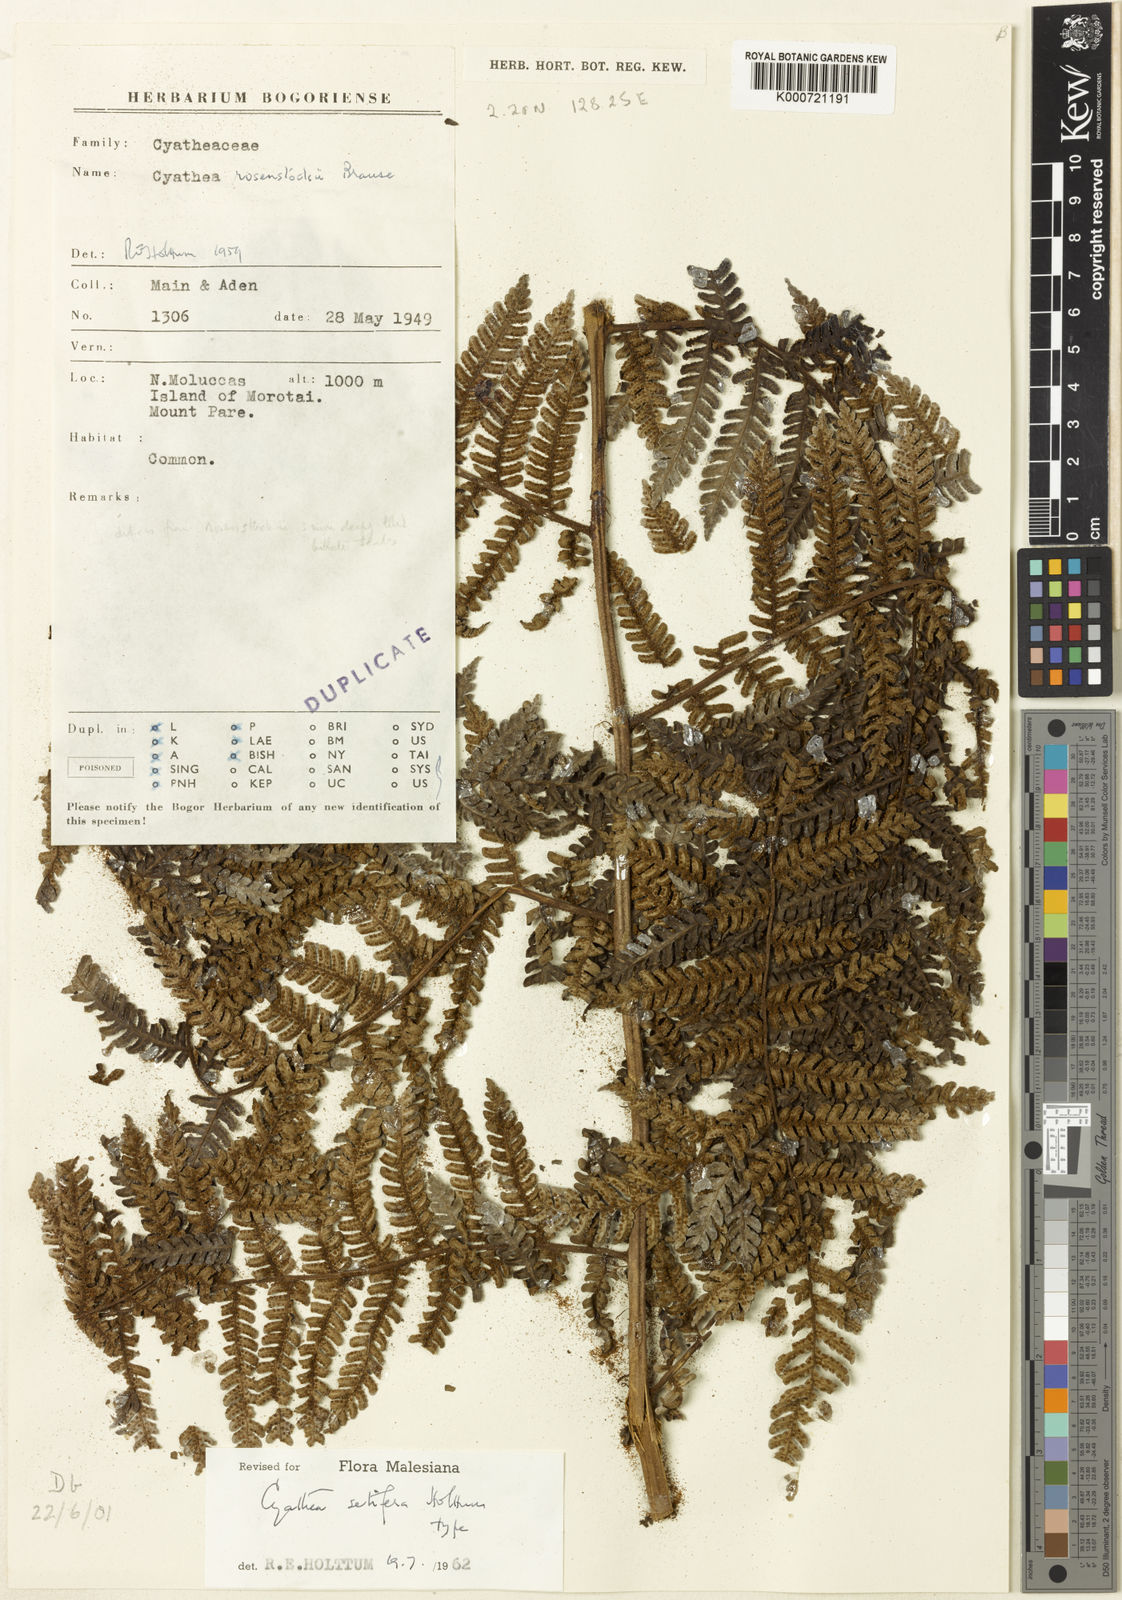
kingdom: Plantae
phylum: Tracheophyta
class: Polypodiopsida
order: Cyatheales
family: Cyatheaceae
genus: Sphaeropteris
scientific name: Sphaeropteris setifera
